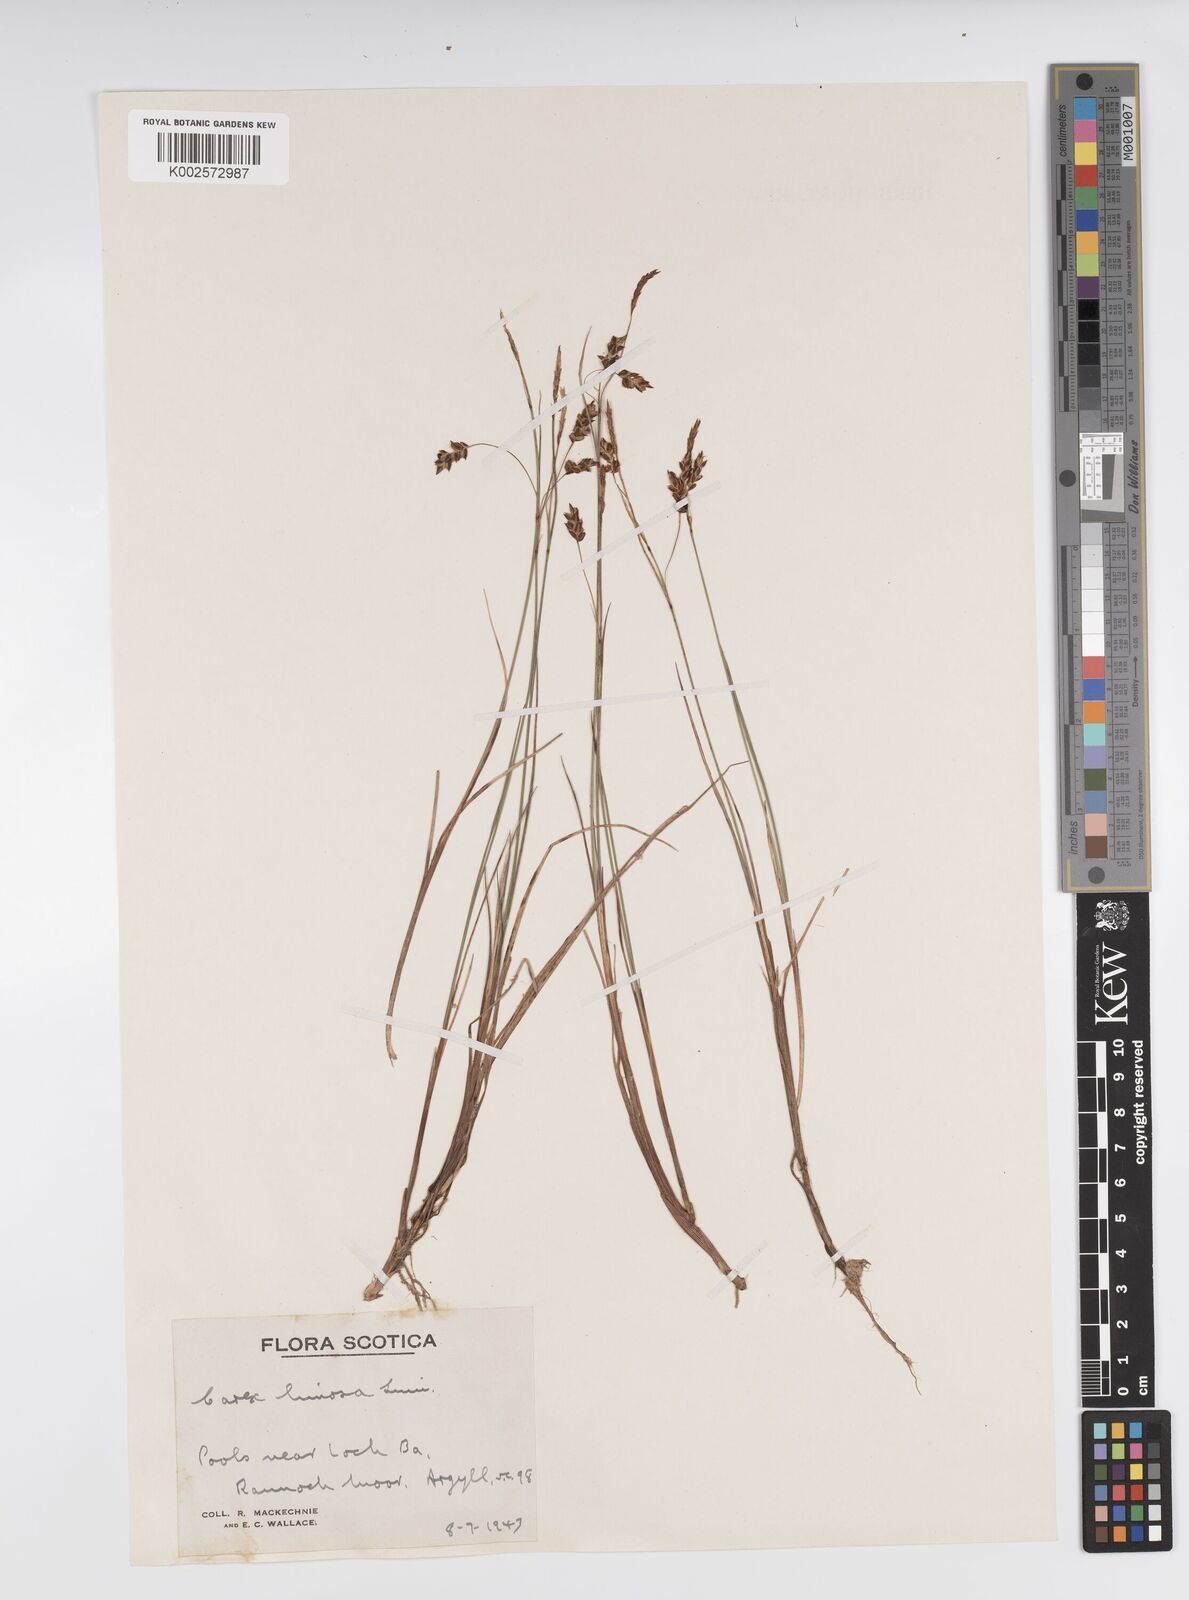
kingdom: Plantae
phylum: Tracheophyta
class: Liliopsida
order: Poales
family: Cyperaceae
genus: Carex
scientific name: Carex limosa
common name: Bog sedge
